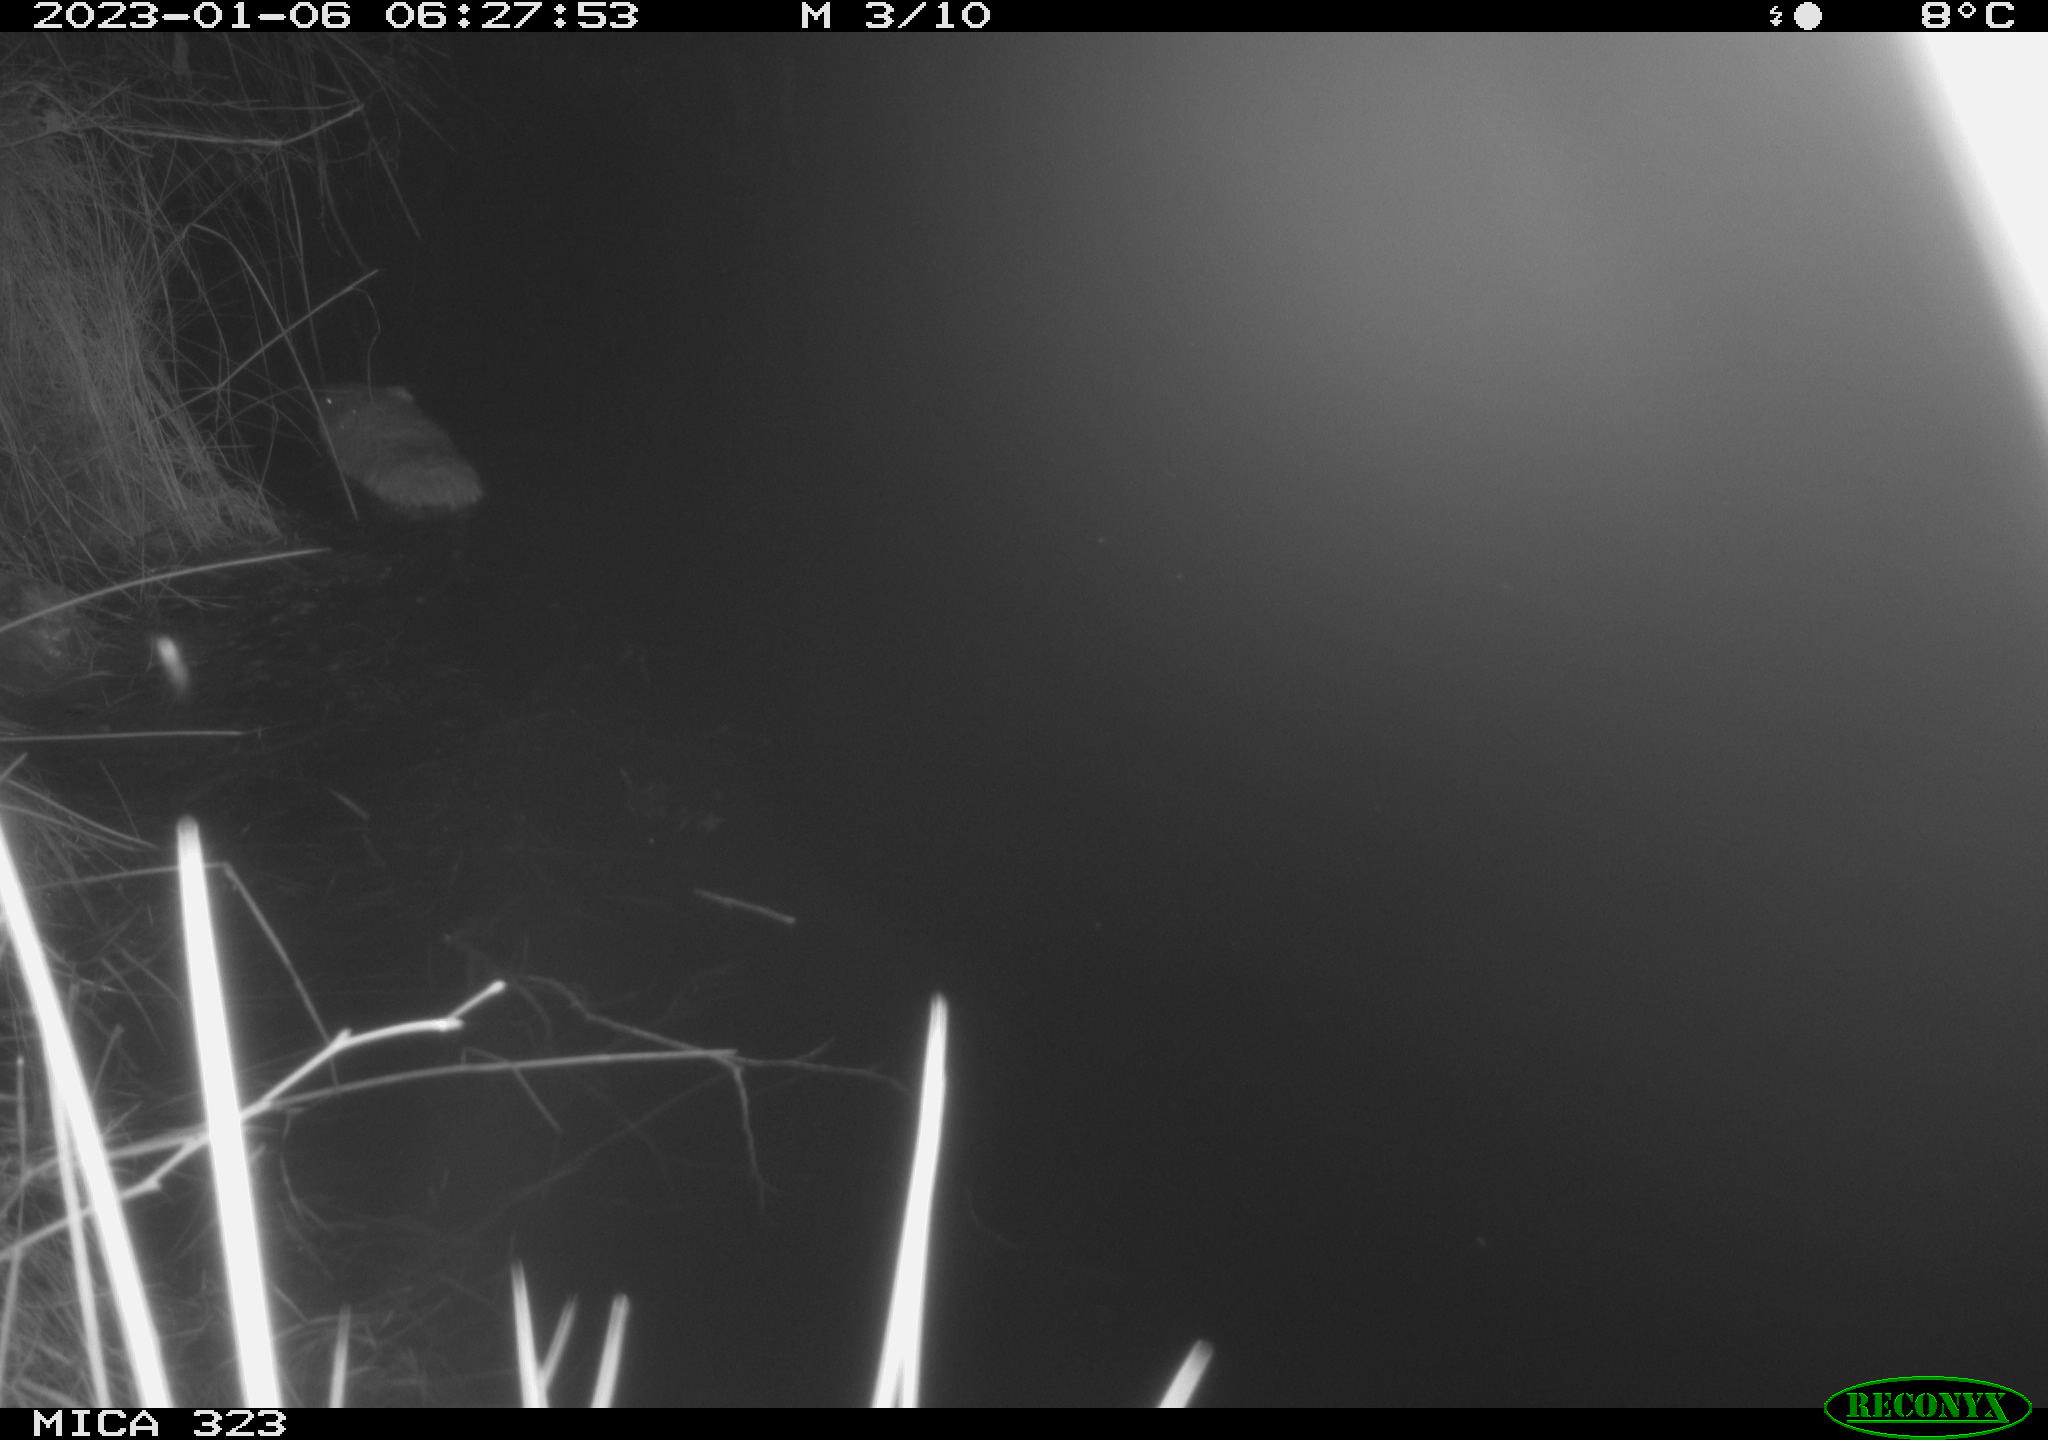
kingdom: Animalia
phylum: Chordata
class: Mammalia
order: Rodentia
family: Cricetidae
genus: Ondatra
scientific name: Ondatra zibethicus
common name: Muskrat
